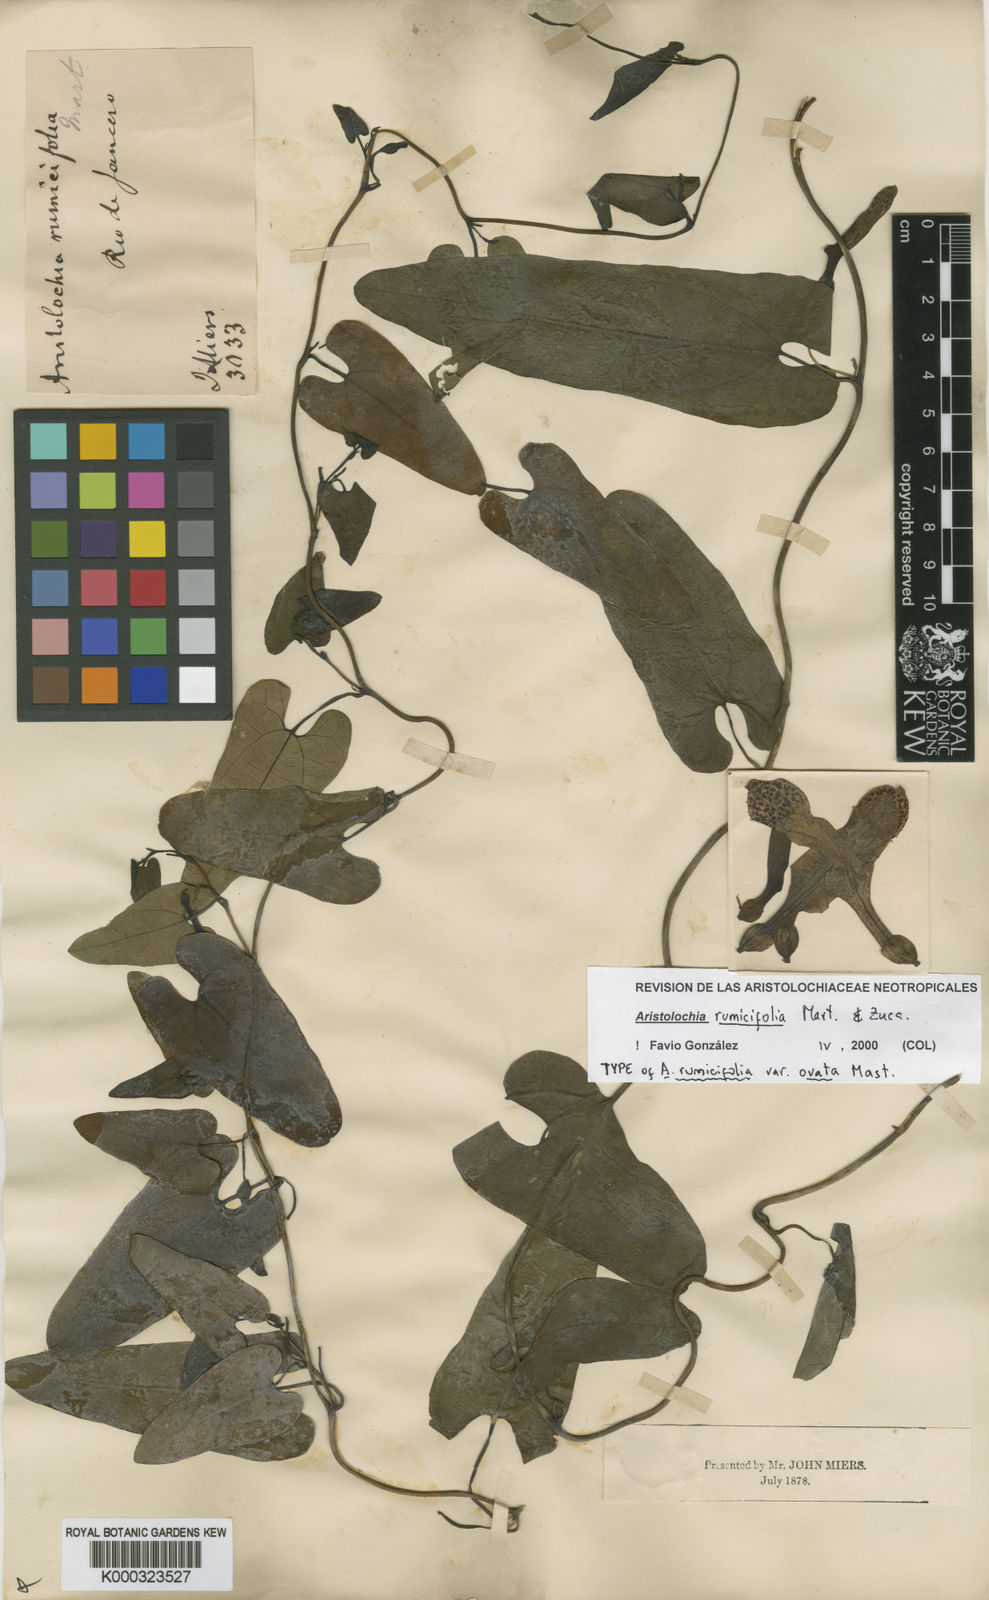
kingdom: Plantae
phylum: Tracheophyta
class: Magnoliopsida
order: Piperales
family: Aristolochiaceae
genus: Aristolochia
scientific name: Aristolochia rumicifolia
